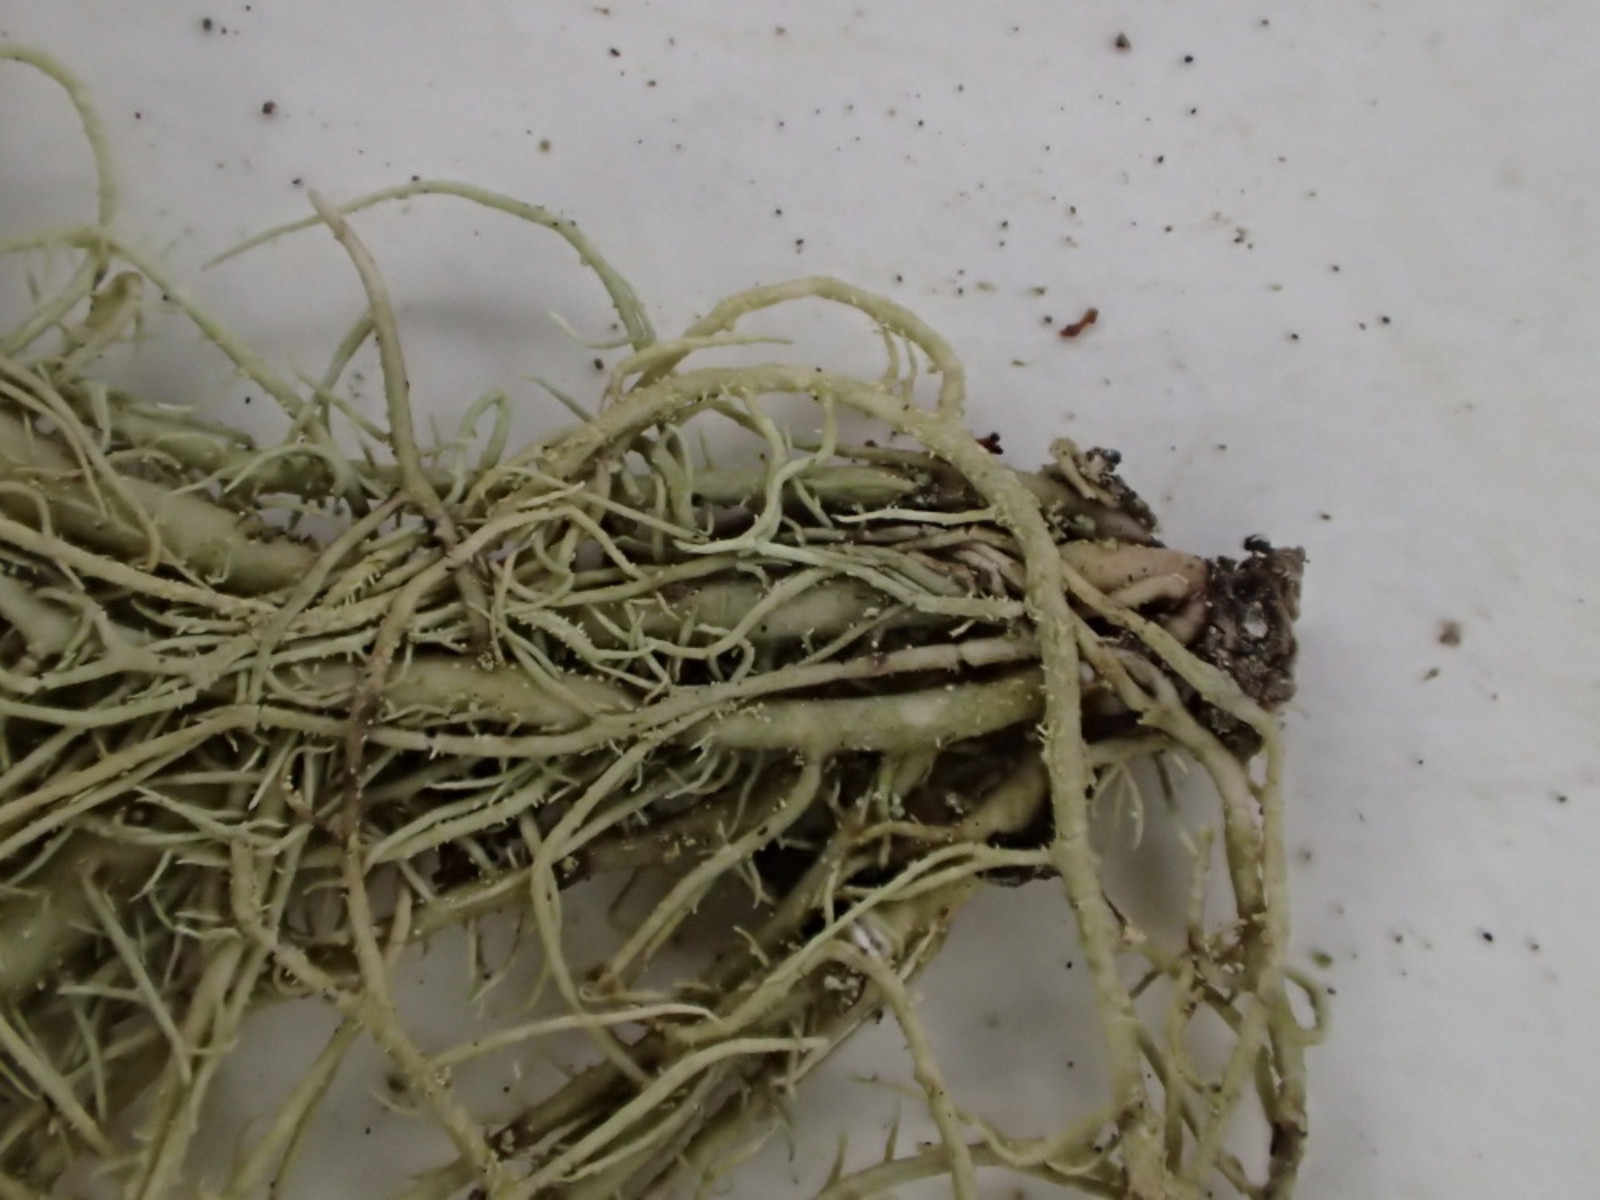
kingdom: Fungi
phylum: Ascomycota
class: Lecanoromycetes
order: Lecanorales
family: Parmeliaceae
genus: Usnea
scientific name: Usnea hirta
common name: liden skæglav
